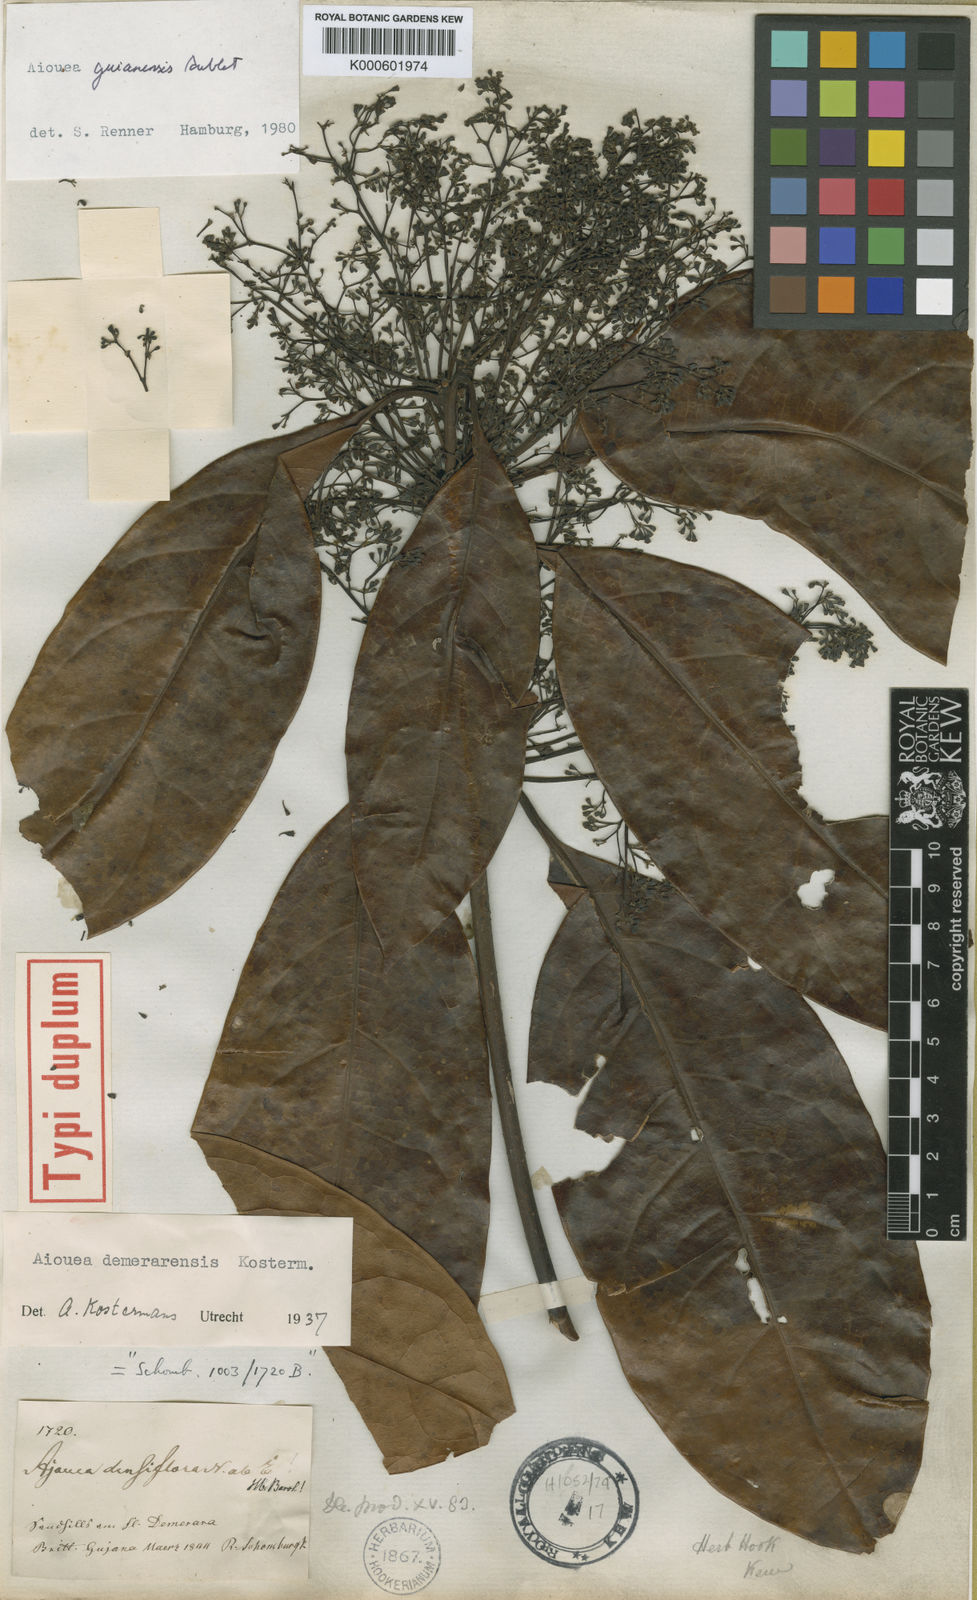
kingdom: Plantae
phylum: Tracheophyta
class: Magnoliopsida
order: Laurales
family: Lauraceae
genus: Aiouea
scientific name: Aiouea guianensis
